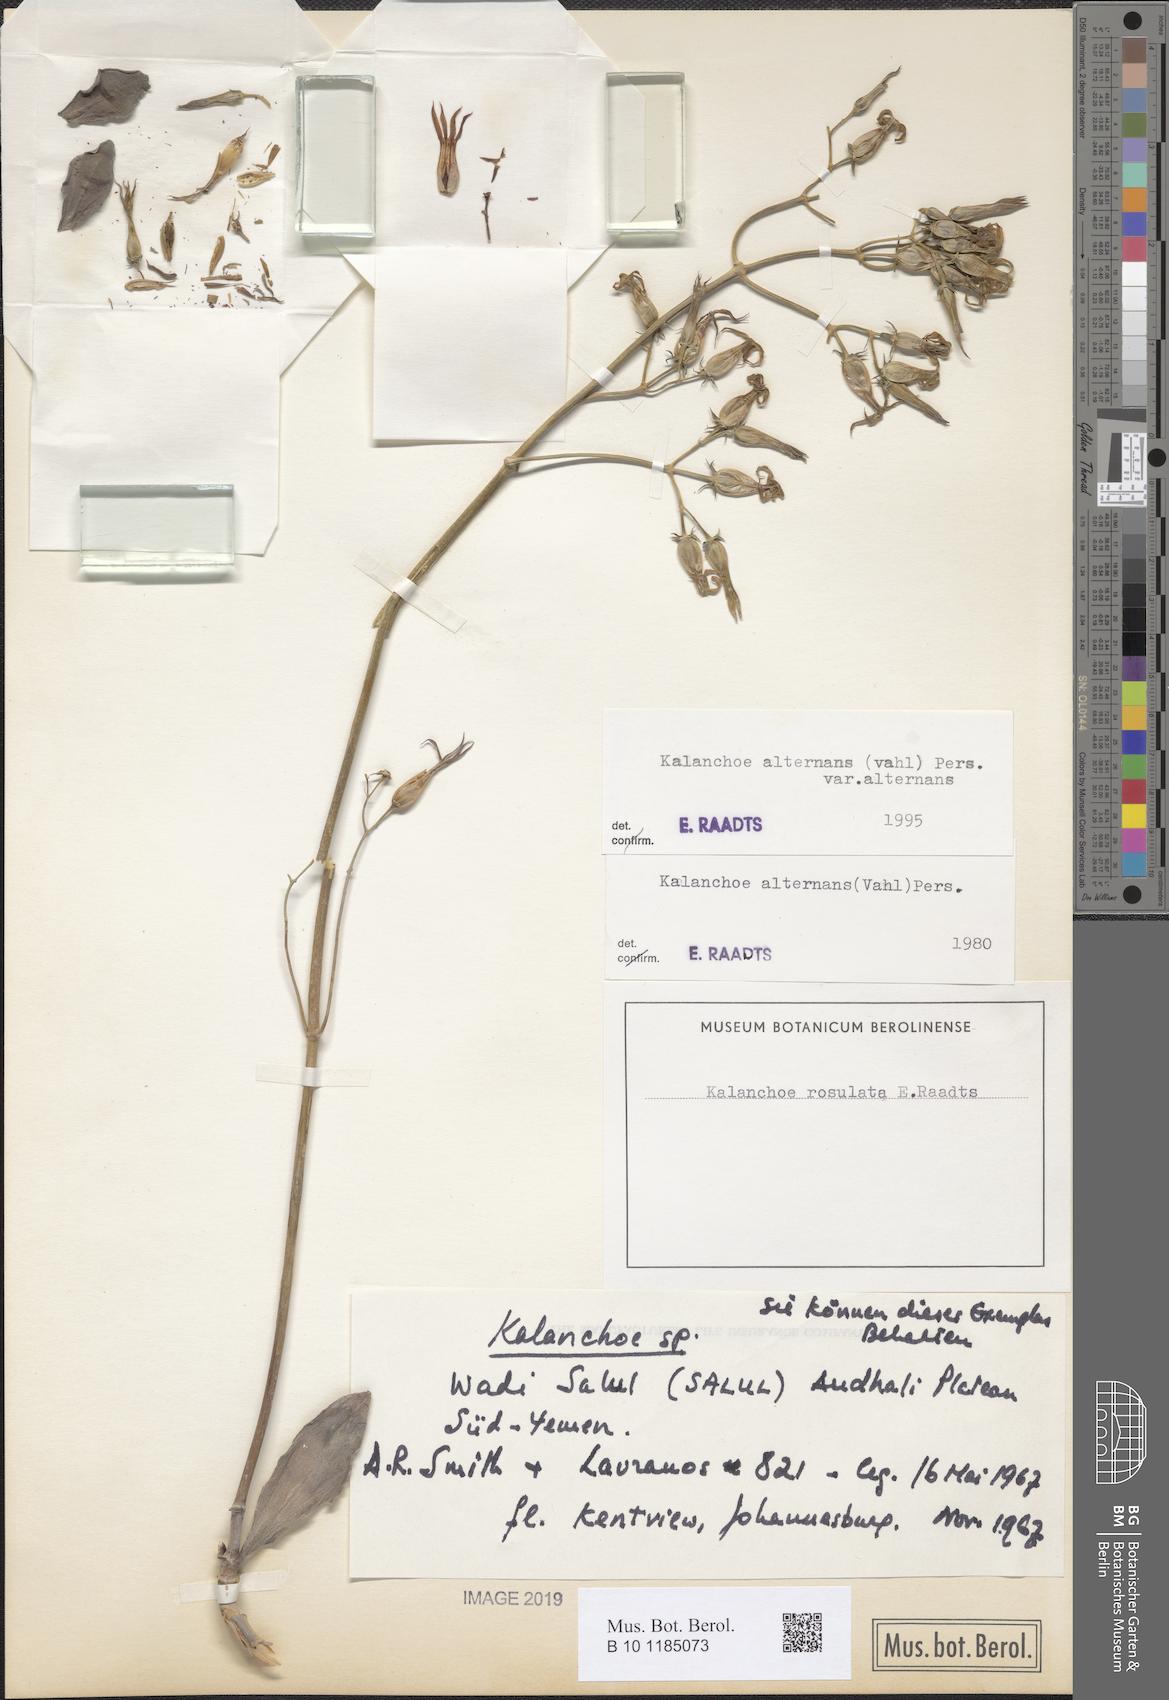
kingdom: Plantae
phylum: Tracheophyta
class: Magnoliopsida
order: Saxifragales
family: Crassulaceae
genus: Kalanchoe
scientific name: Kalanchoe alternans
